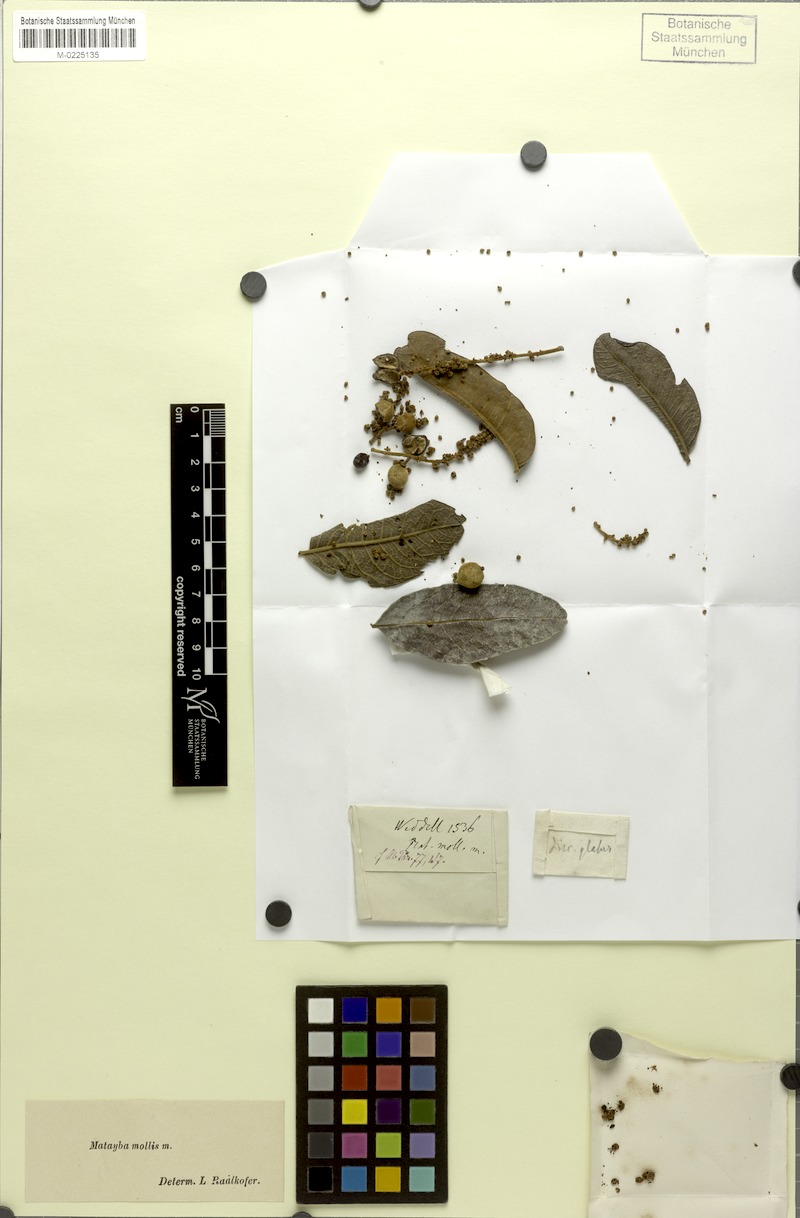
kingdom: Plantae
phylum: Tracheophyta
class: Magnoliopsida
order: Sapindales
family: Sapindaceae
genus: Matayba
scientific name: Matayba mollis
